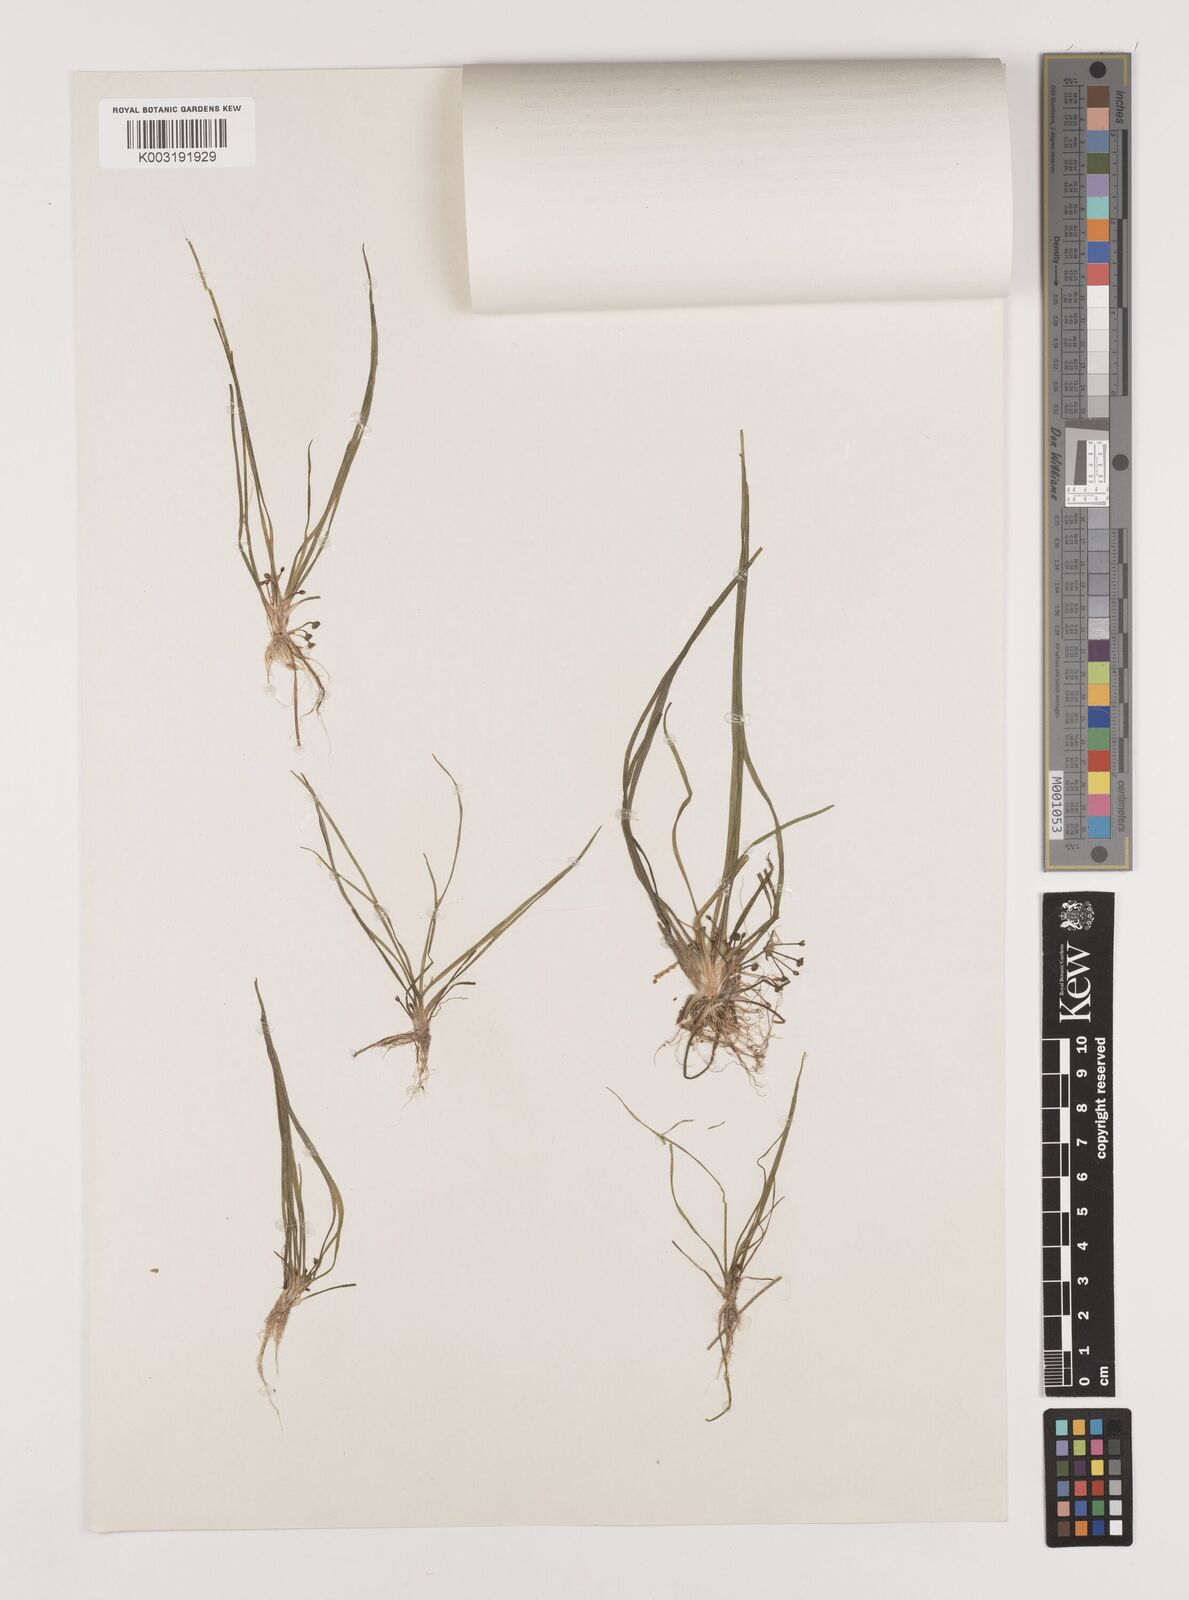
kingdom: Plantae
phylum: Tracheophyta
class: Liliopsida
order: Alismatales
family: Alismataceae
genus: Alisma
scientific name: Alisma wahlenbergii
